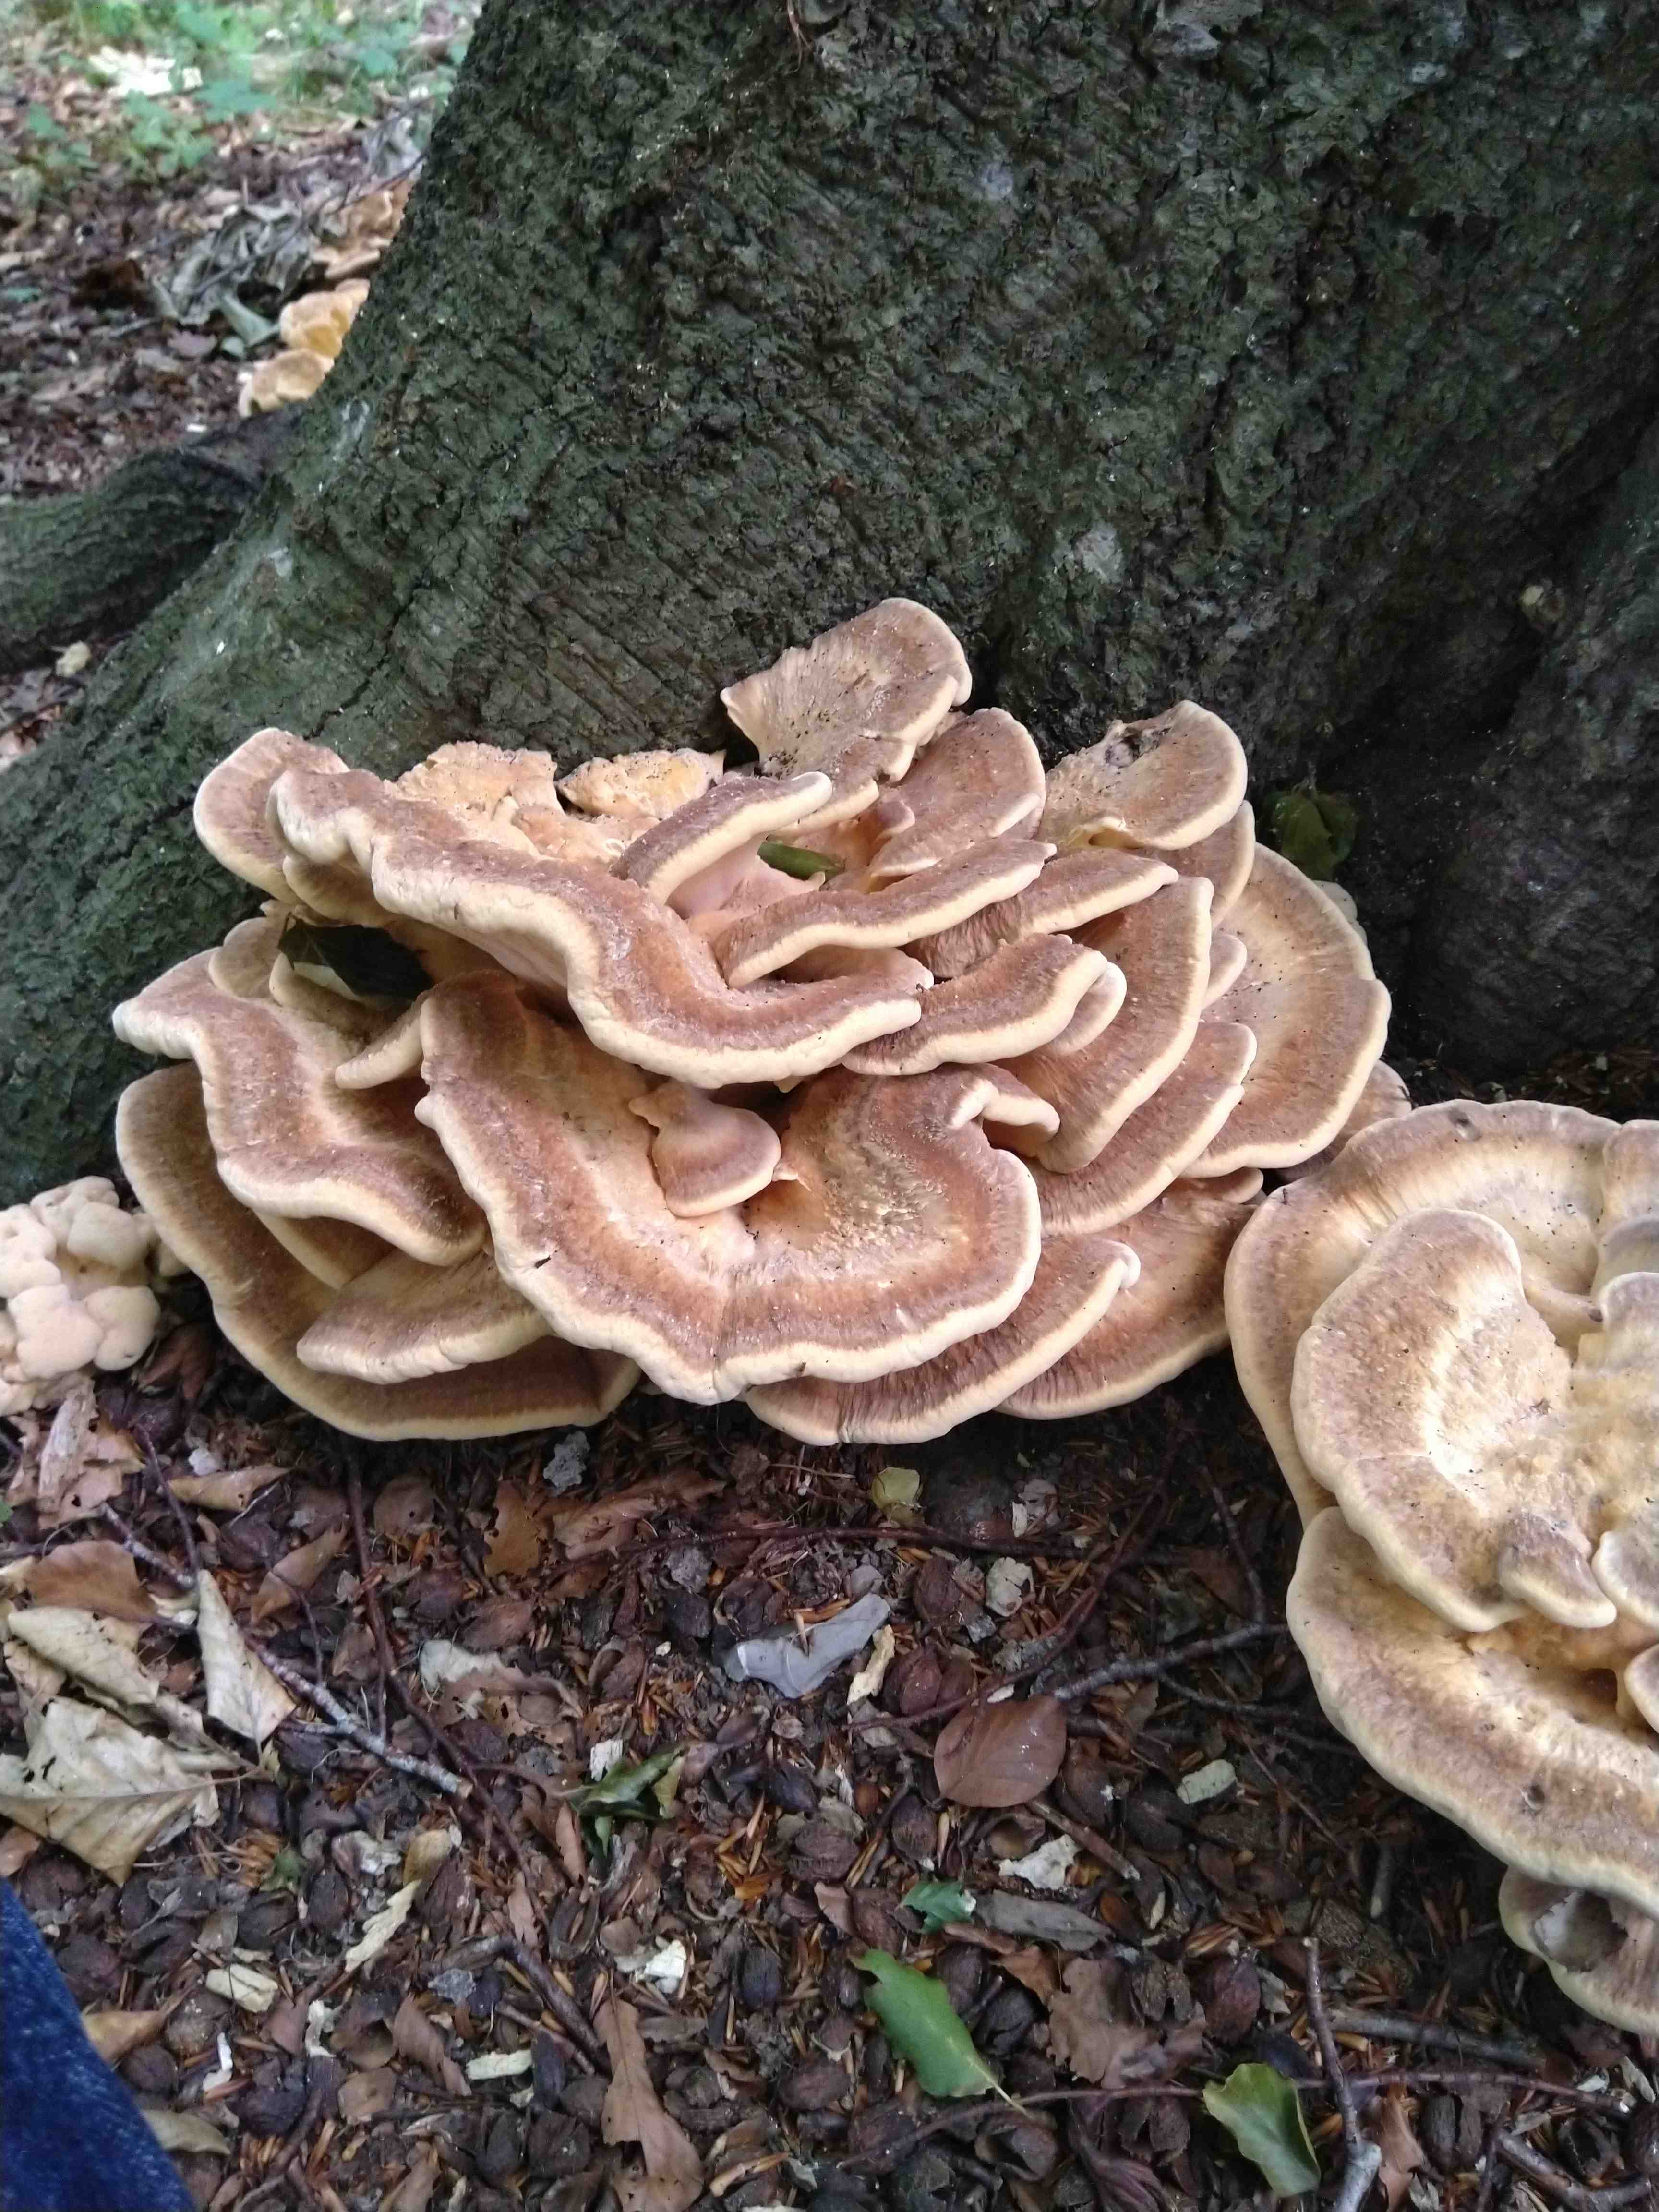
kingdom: Fungi
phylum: Basidiomycota
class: Agaricomycetes
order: Polyporales
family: Meripilaceae
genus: Meripilus
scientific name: Meripilus giganteus
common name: kæmpeporesvamp
